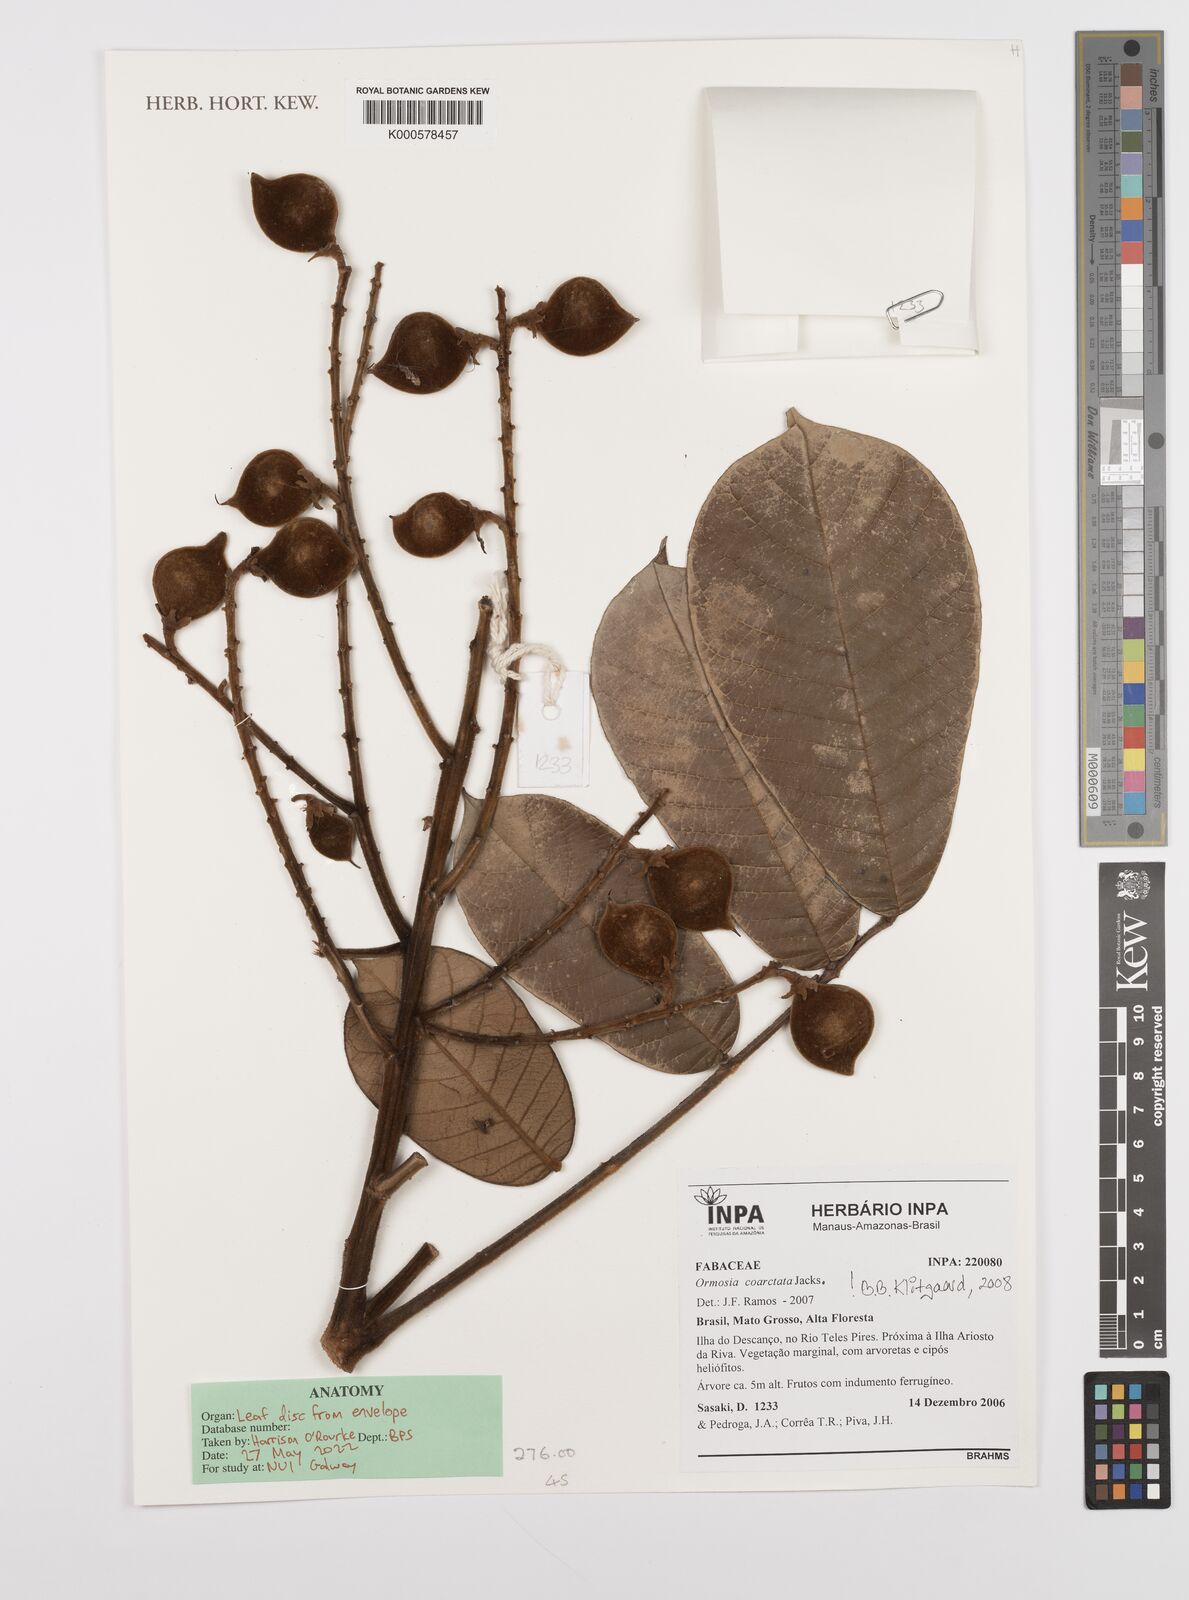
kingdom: Plantae
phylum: Tracheophyta
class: Magnoliopsida
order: Fabales
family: Fabaceae
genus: Ormosia
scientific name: Ormosia coarctata
